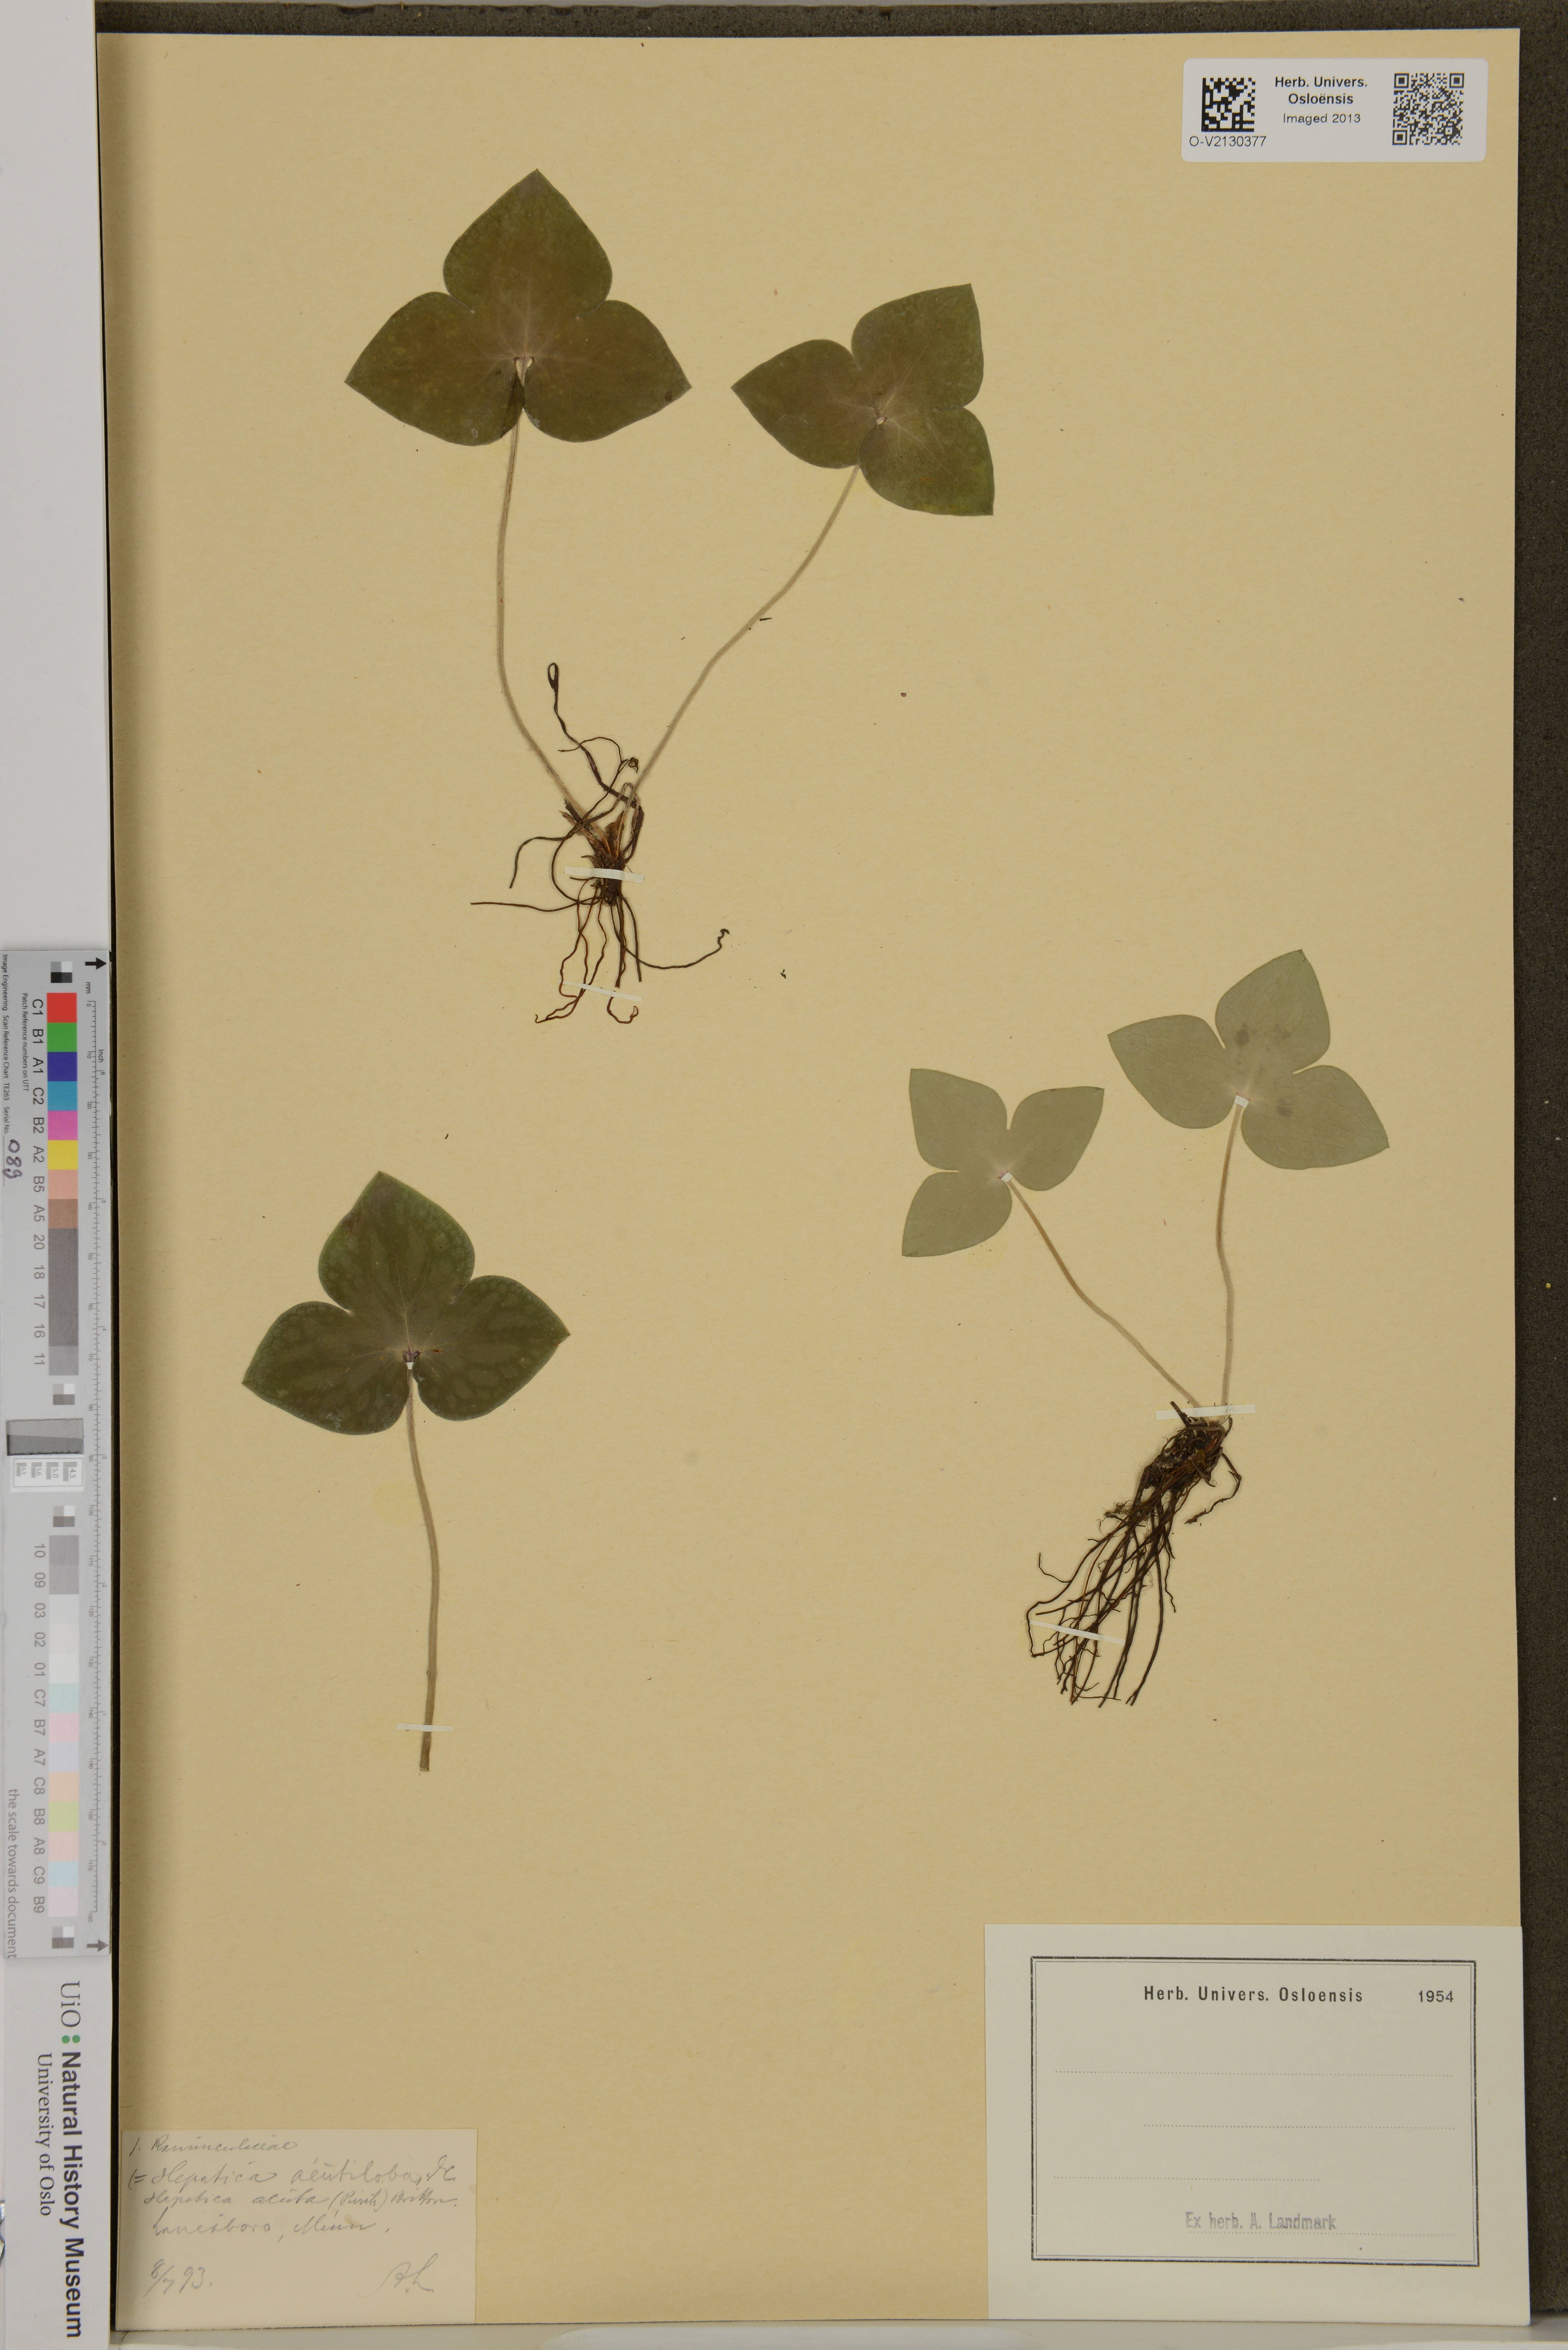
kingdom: Plantae
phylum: Tracheophyta
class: Magnoliopsida
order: Ranunculales
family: Ranunculaceae
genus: Hepatica
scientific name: Hepatica acutiloba
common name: Sharp-lobed hepatica
